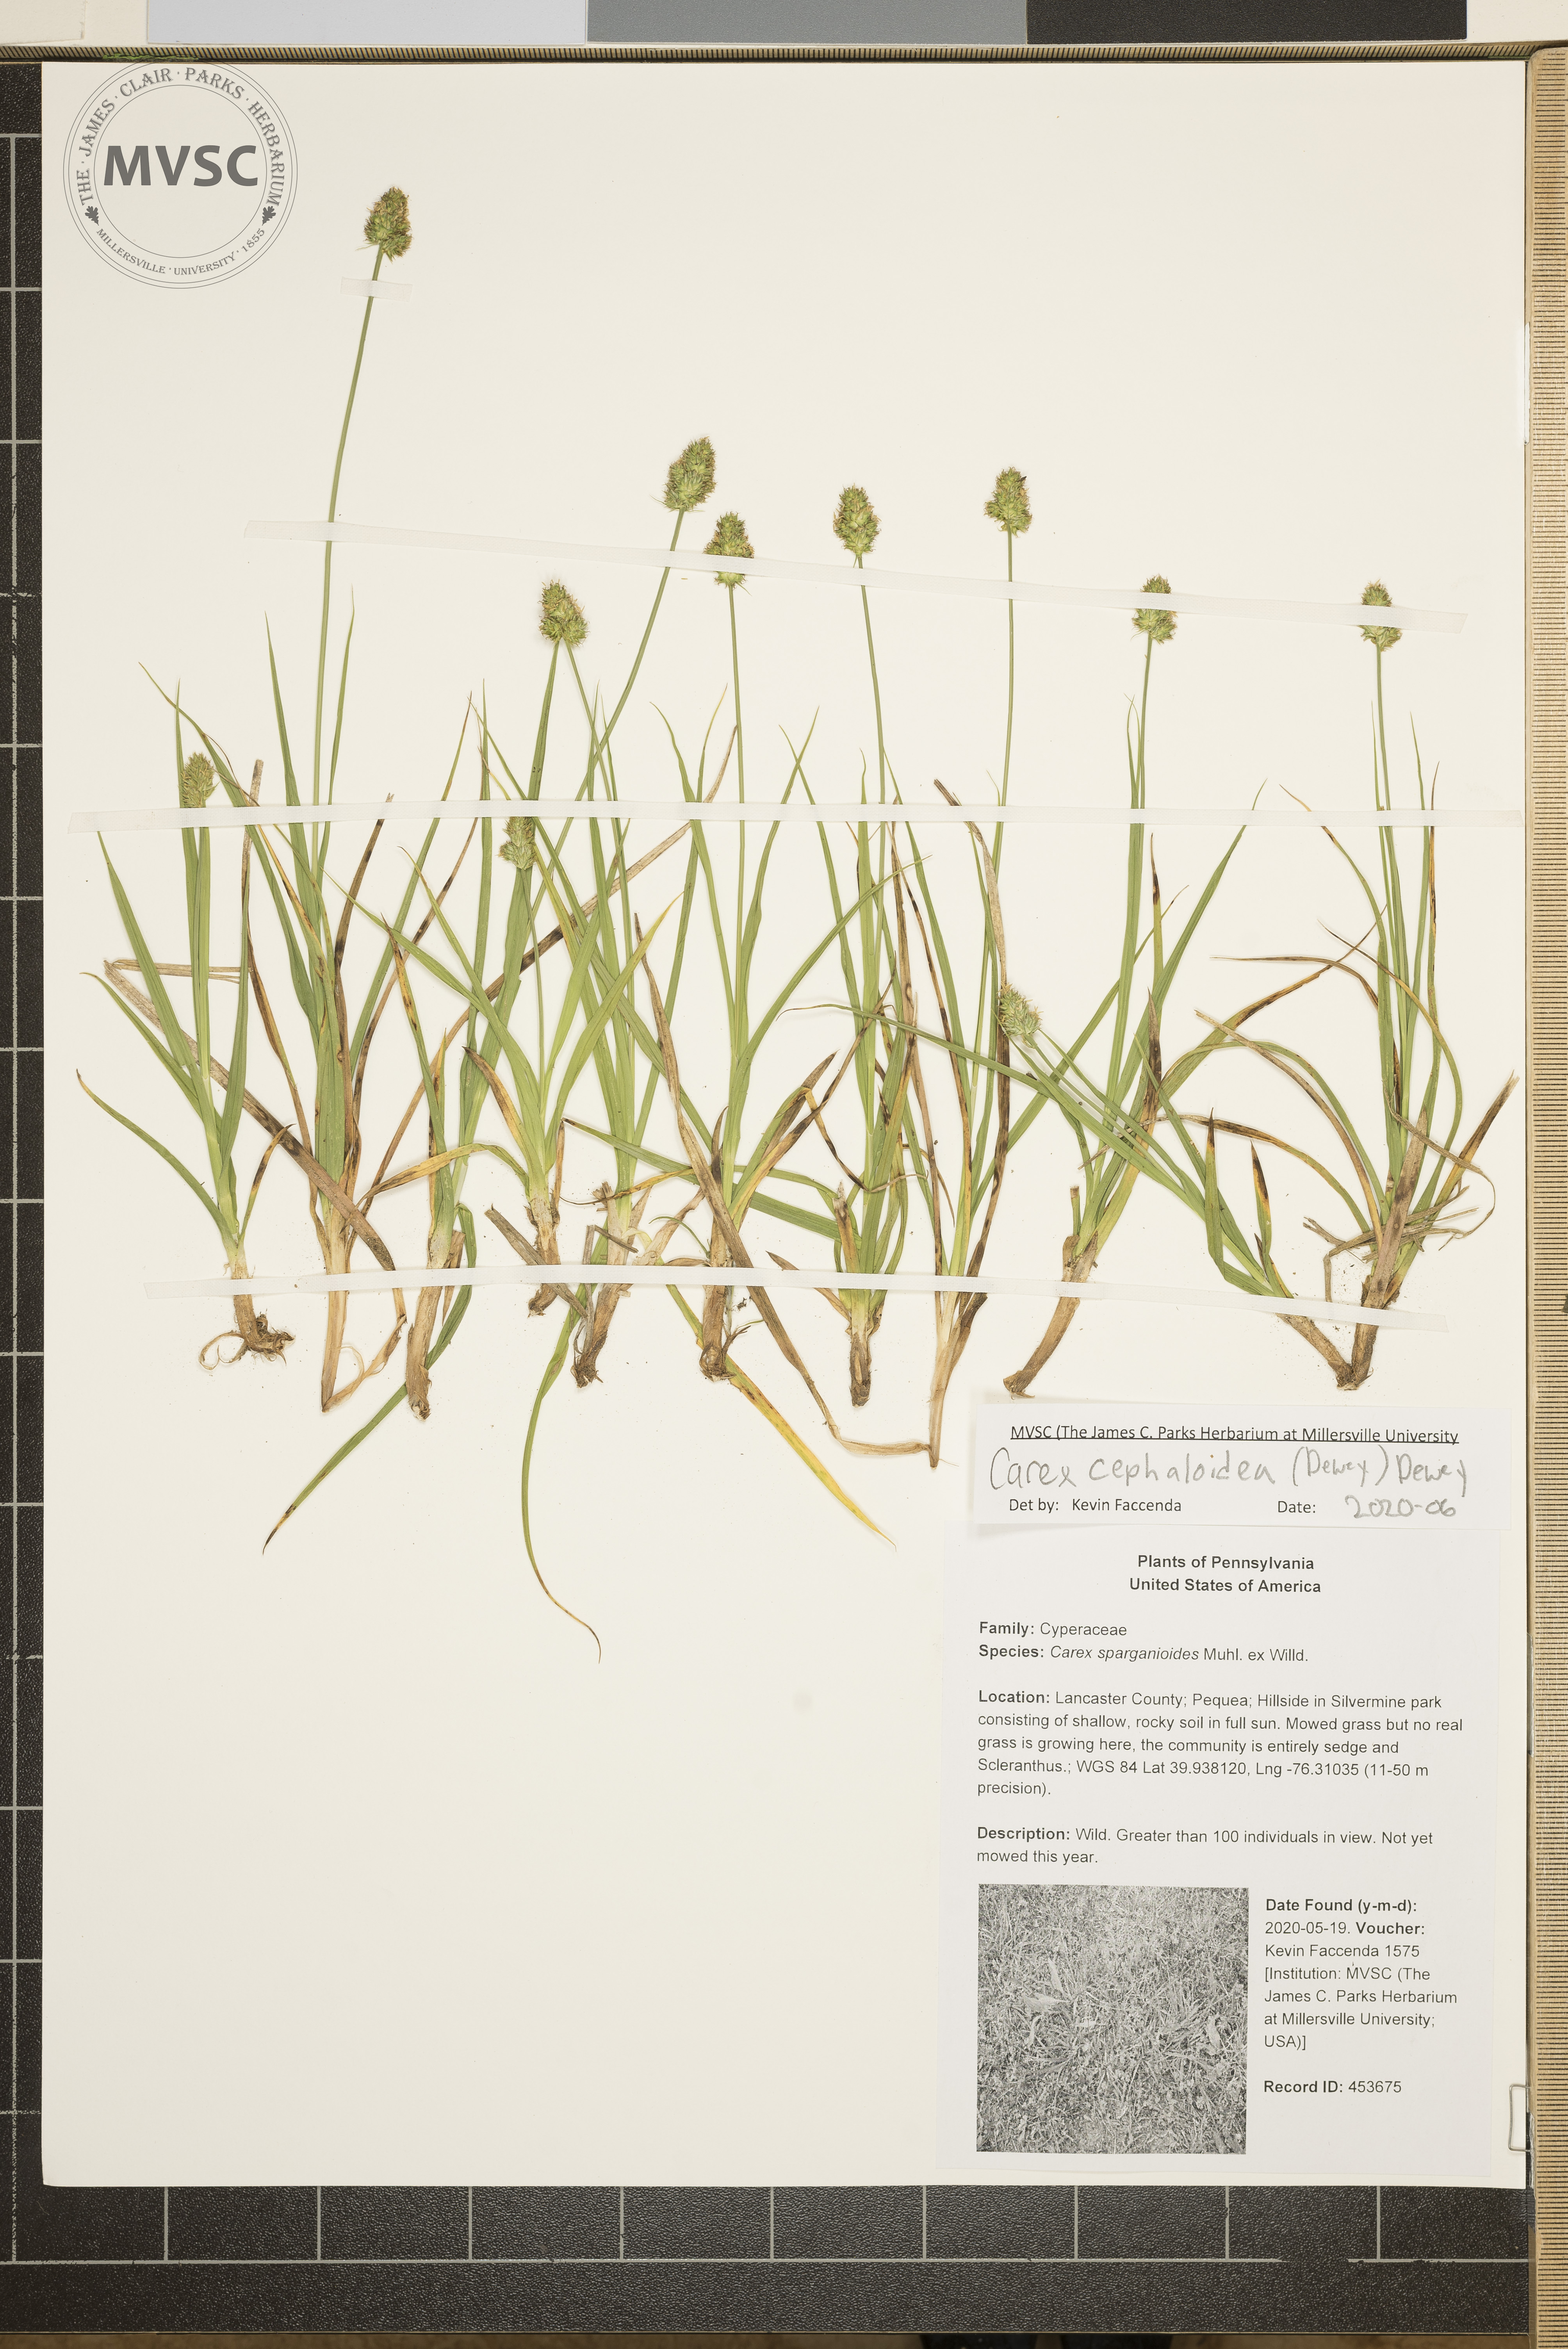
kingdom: Plantae
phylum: Tracheophyta
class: Liliopsida
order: Poales
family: Cyperaceae
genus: Carex
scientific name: Carex cephaloidea
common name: Thin-leaved sedge
